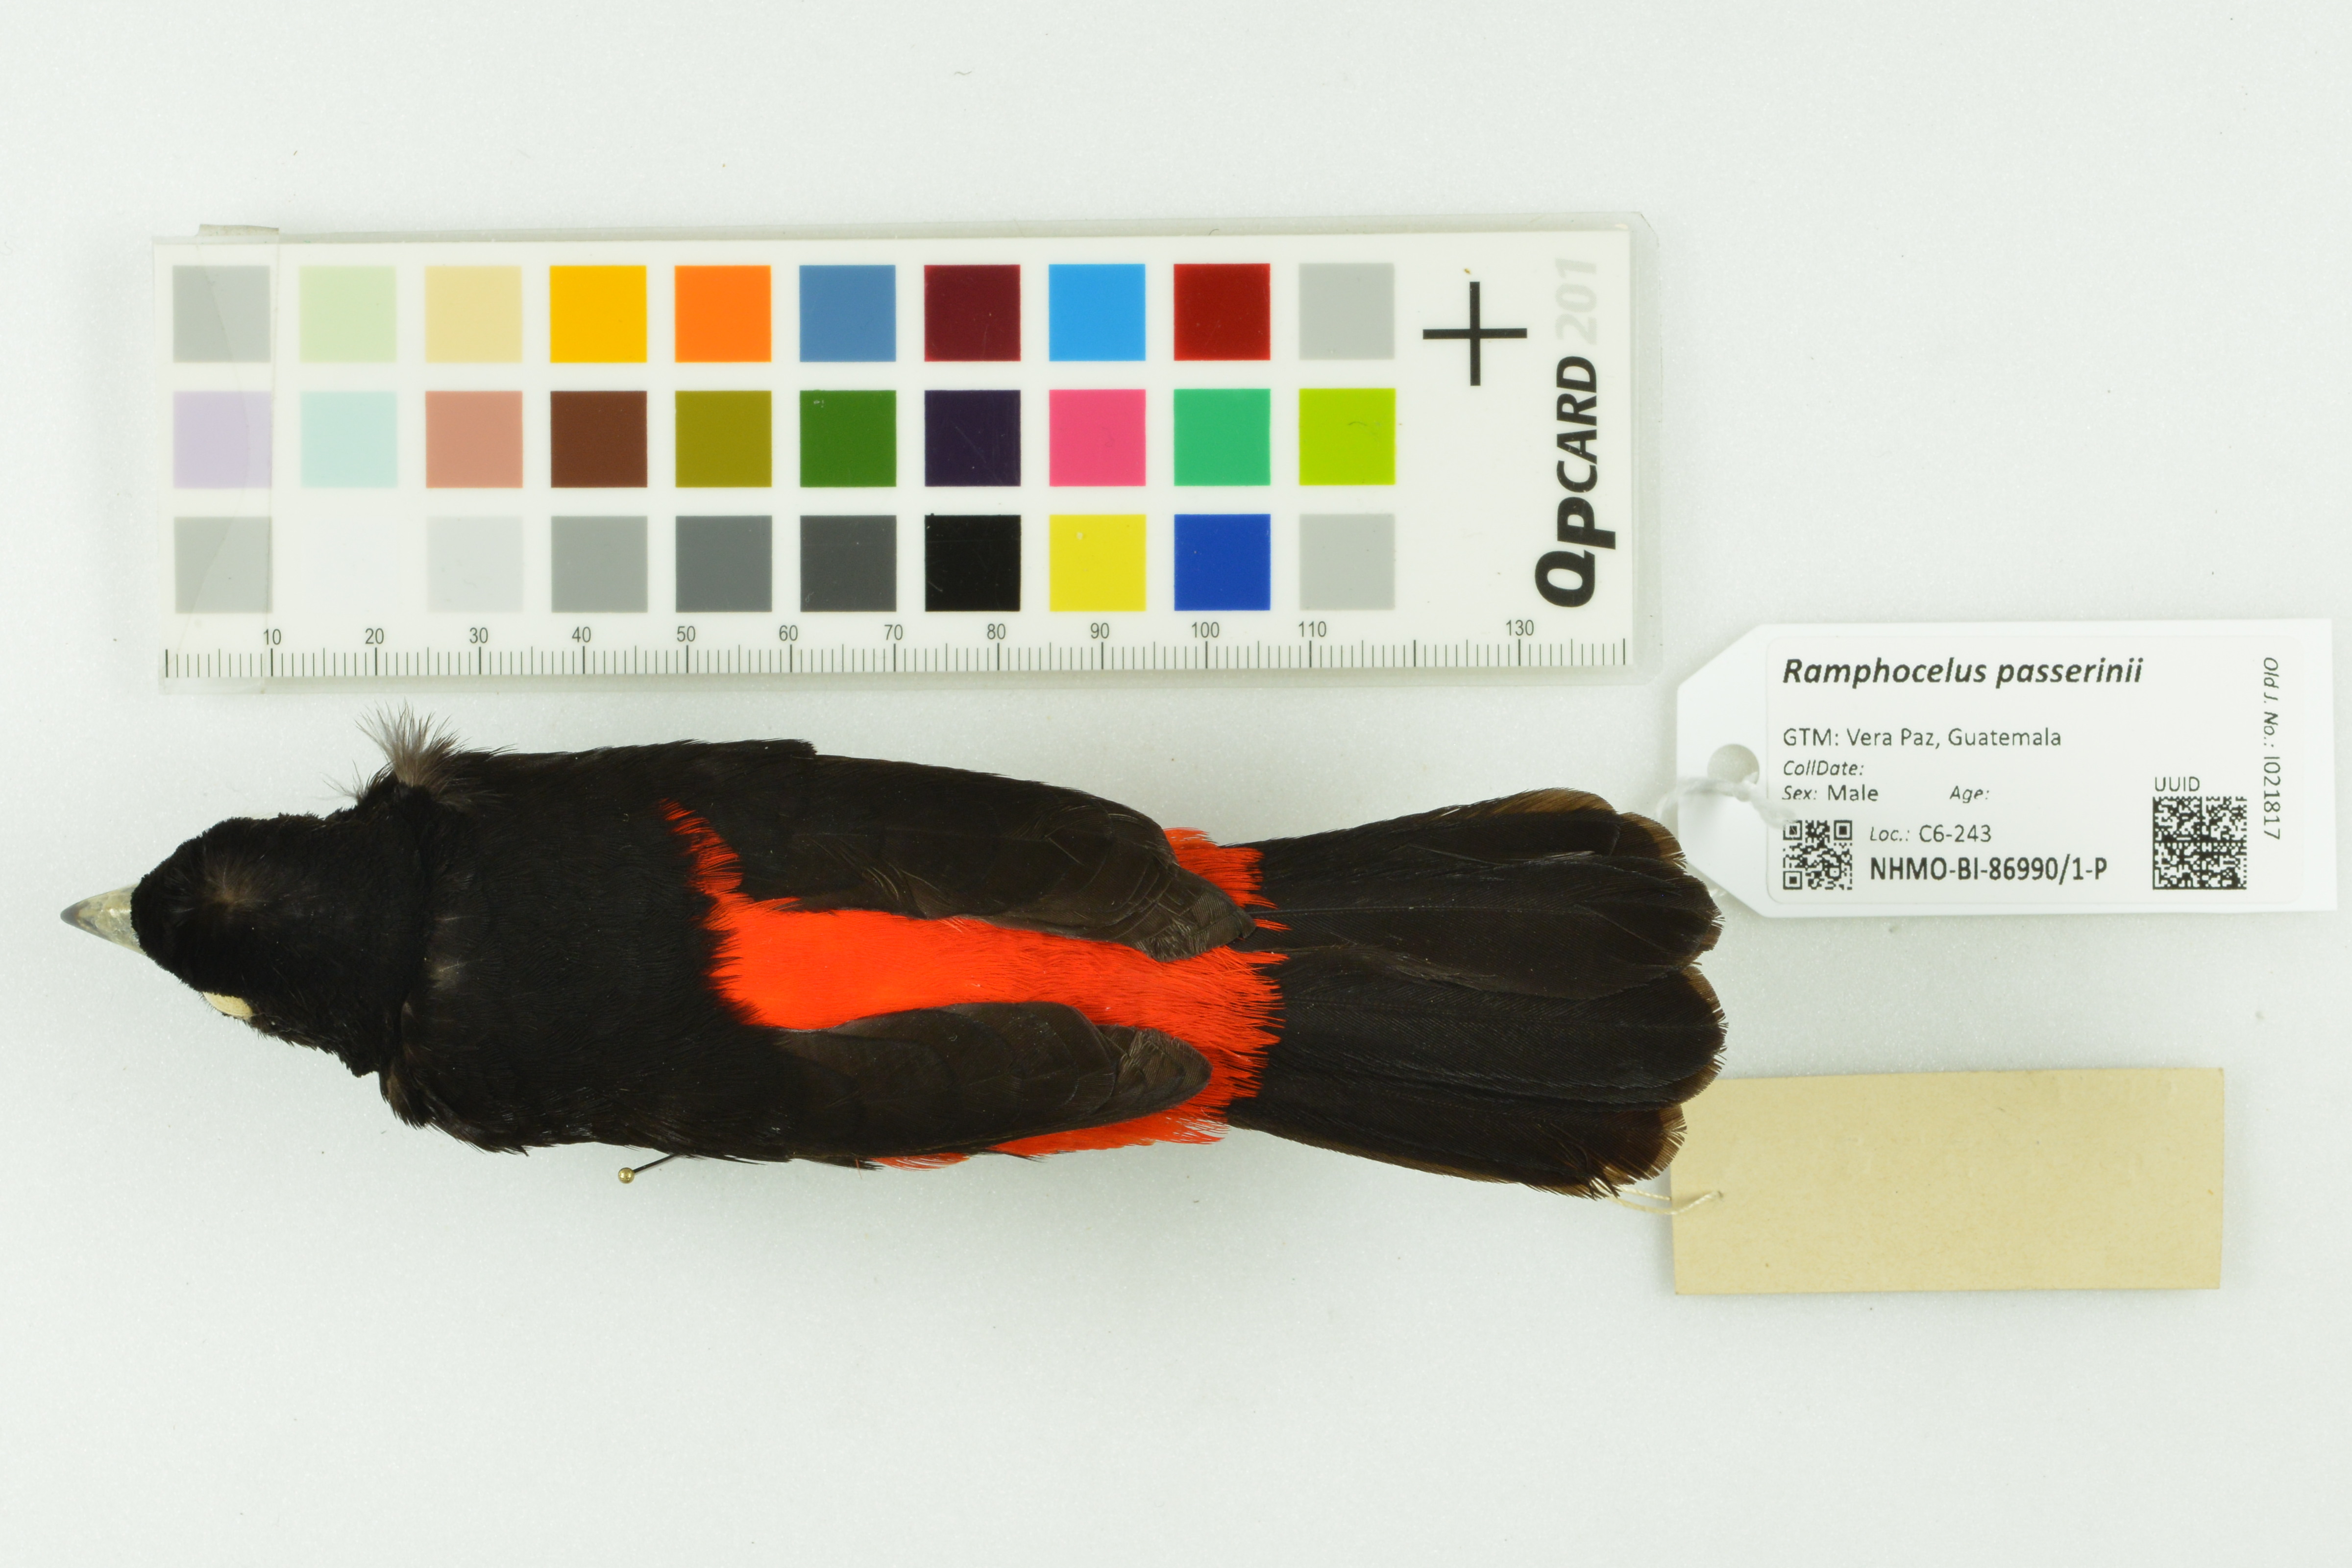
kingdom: Animalia
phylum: Chordata
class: Aves
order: Passeriformes
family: Thraupidae
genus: Ramphocelus
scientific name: Ramphocelus passerinii
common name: Passerini's tanager
